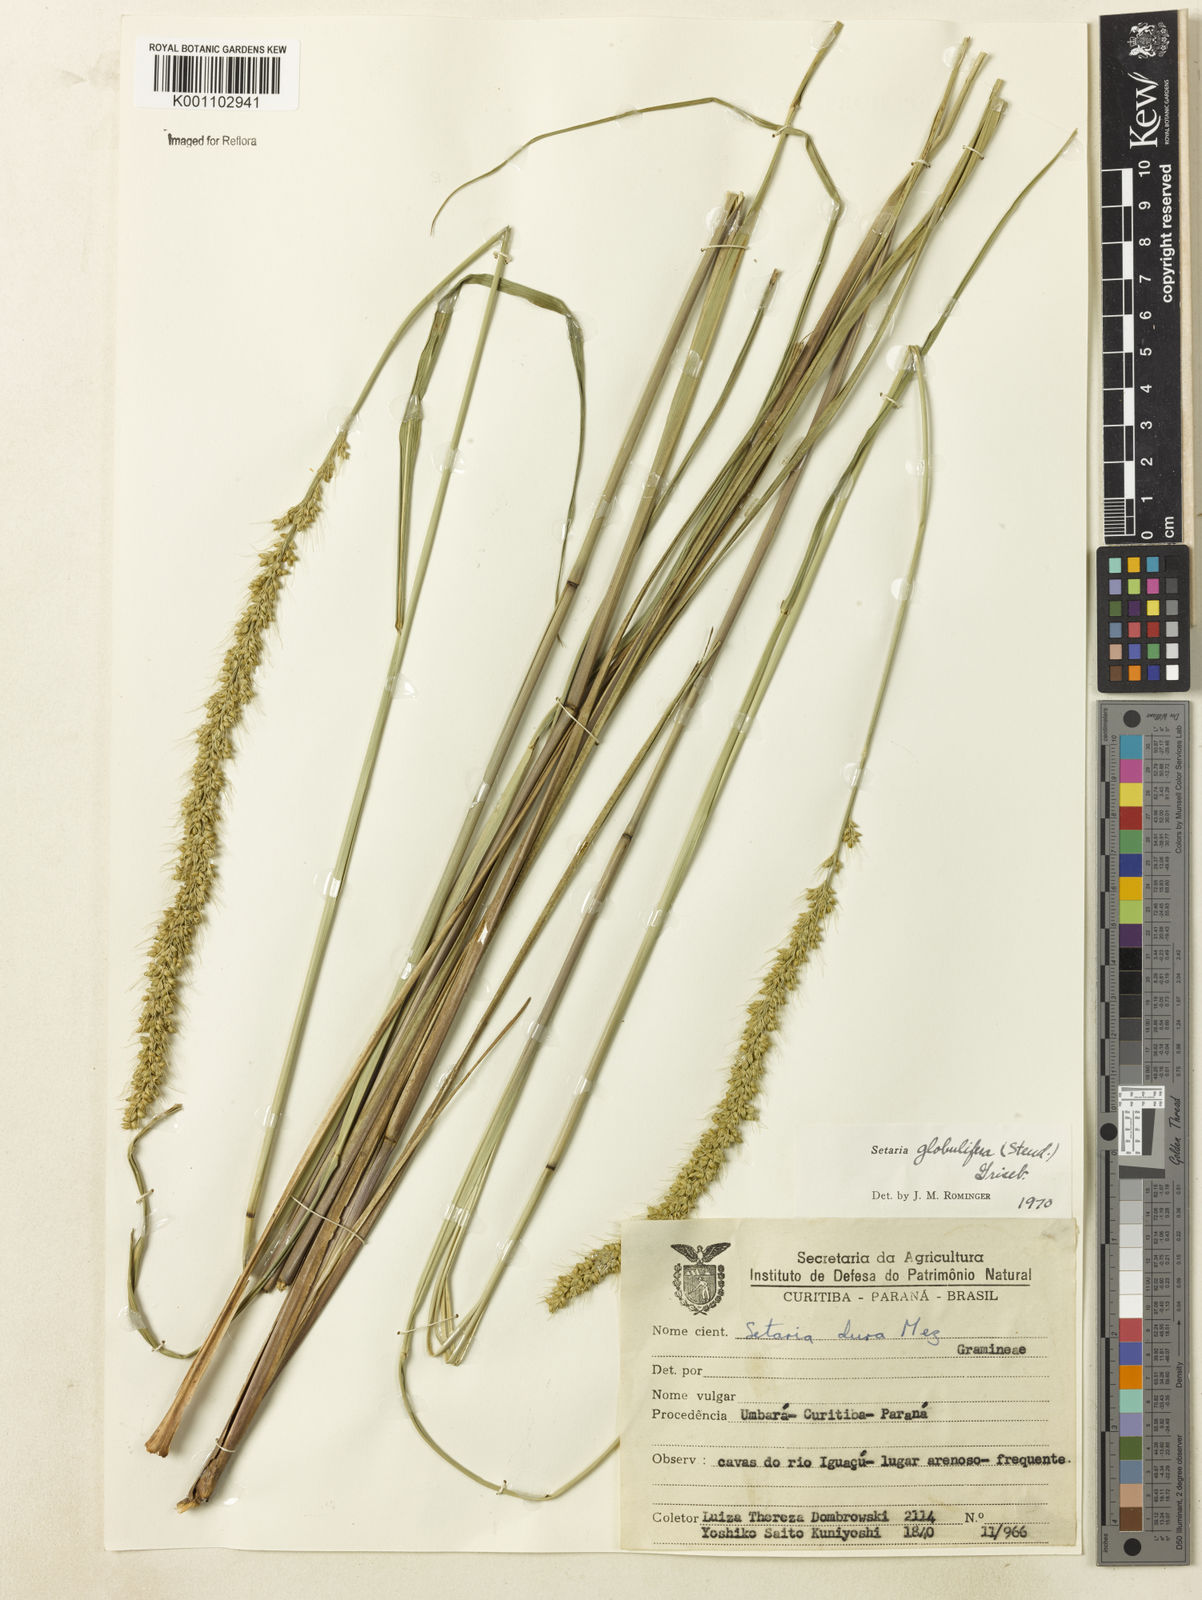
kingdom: Plantae
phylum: Tracheophyta
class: Liliopsida
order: Poales
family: Poaceae
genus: Setaria
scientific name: Setaria globulifera
